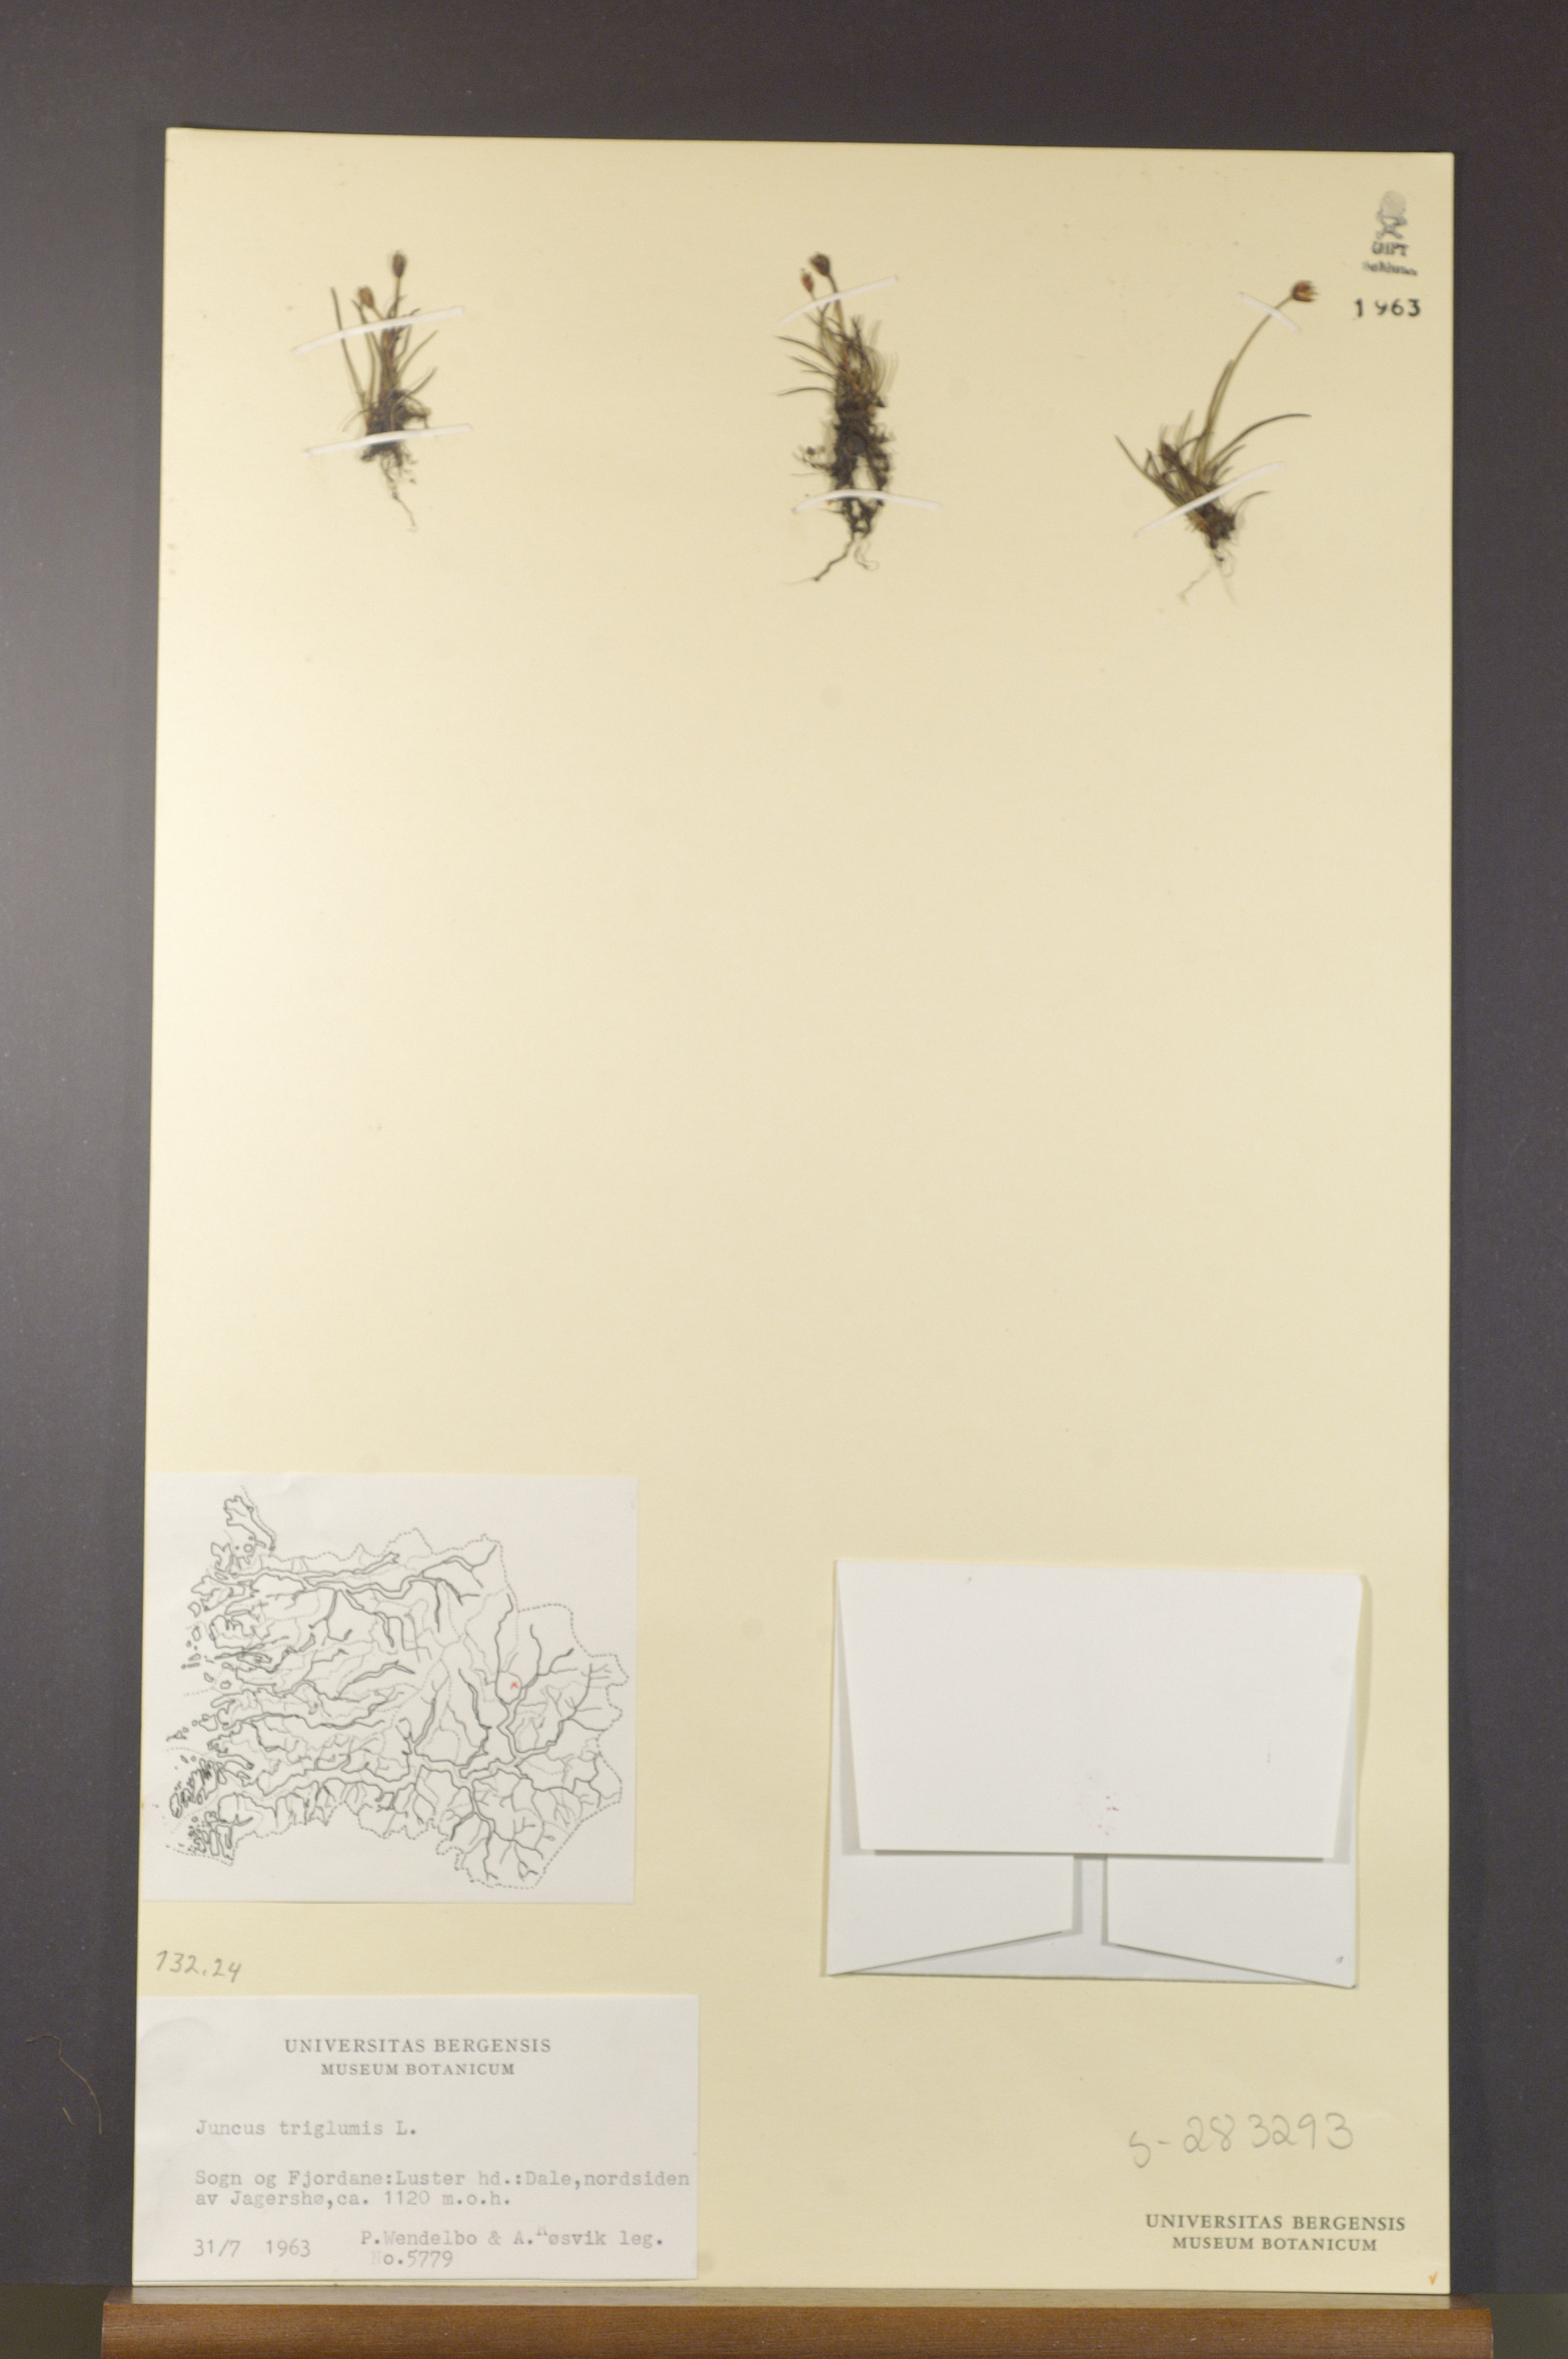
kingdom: Plantae
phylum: Tracheophyta
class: Liliopsida
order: Poales
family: Juncaceae
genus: Juncus
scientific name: Juncus triglumis
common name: Three-flowered rush
